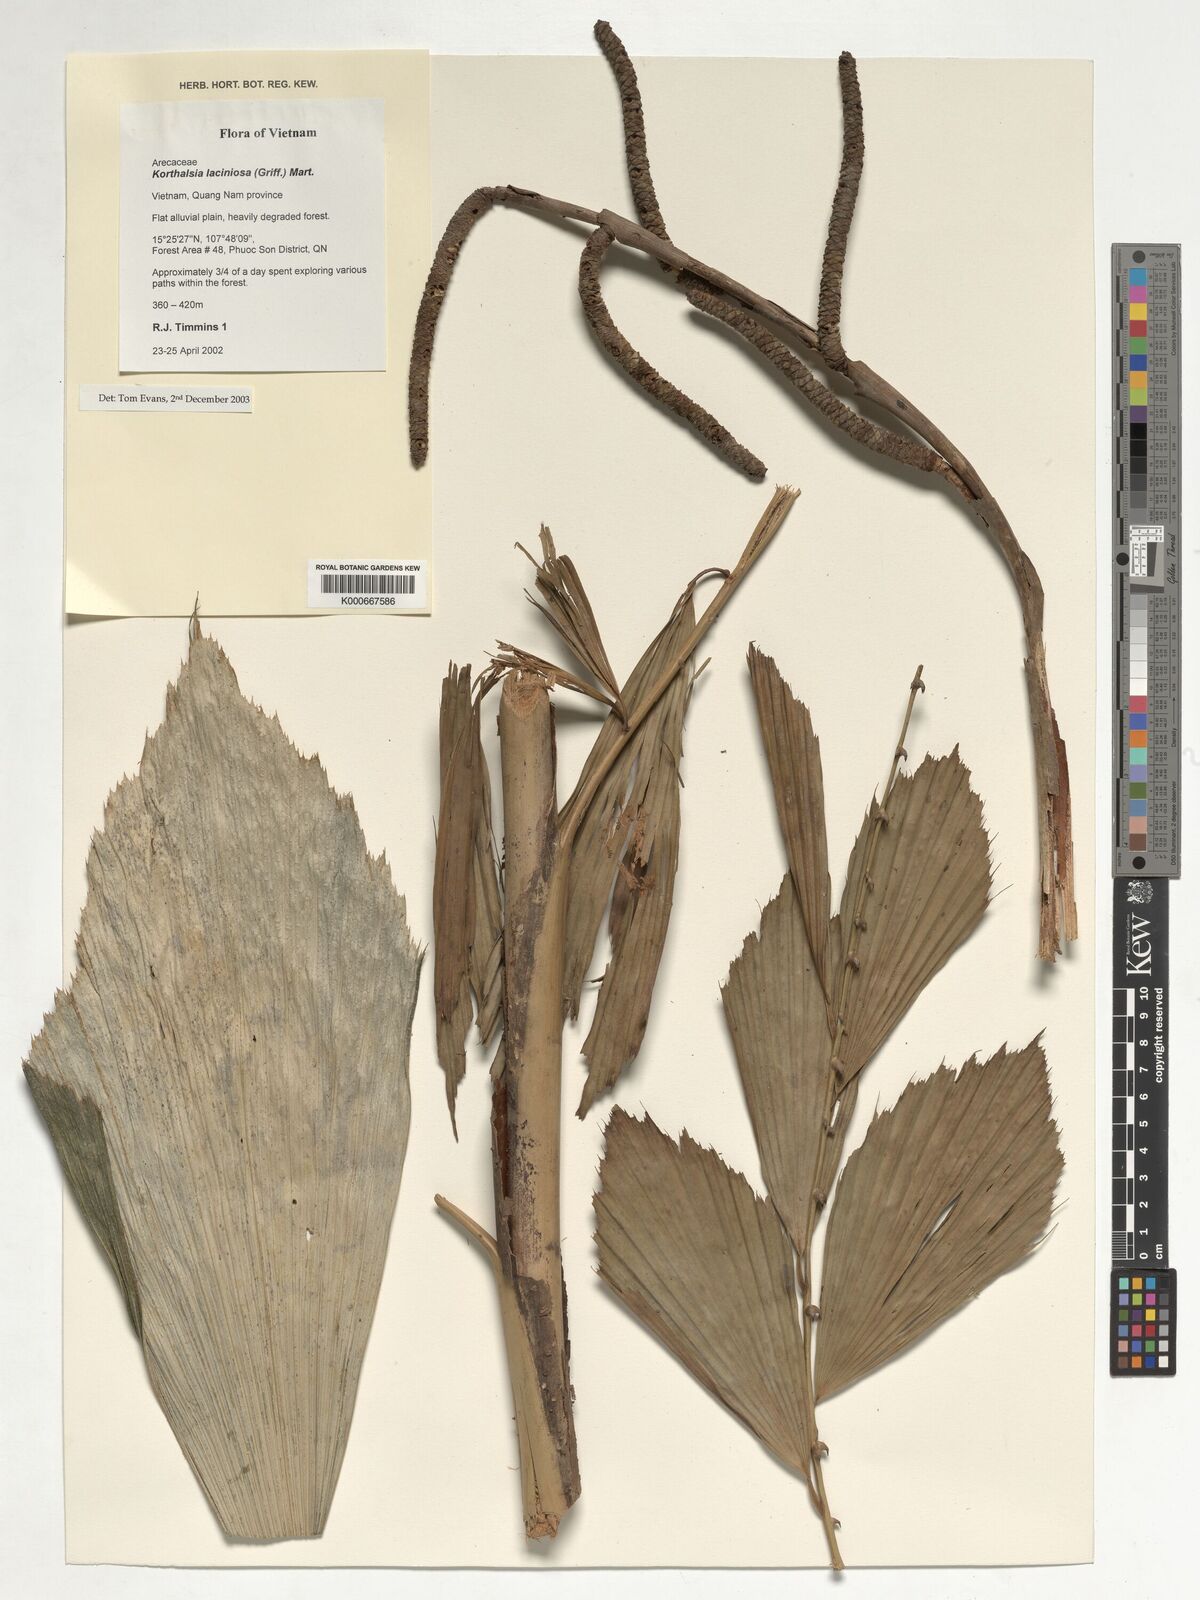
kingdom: Plantae
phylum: Tracheophyta
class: Liliopsida
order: Arecales
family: Arecaceae
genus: Daemonorops
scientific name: Daemonorops
